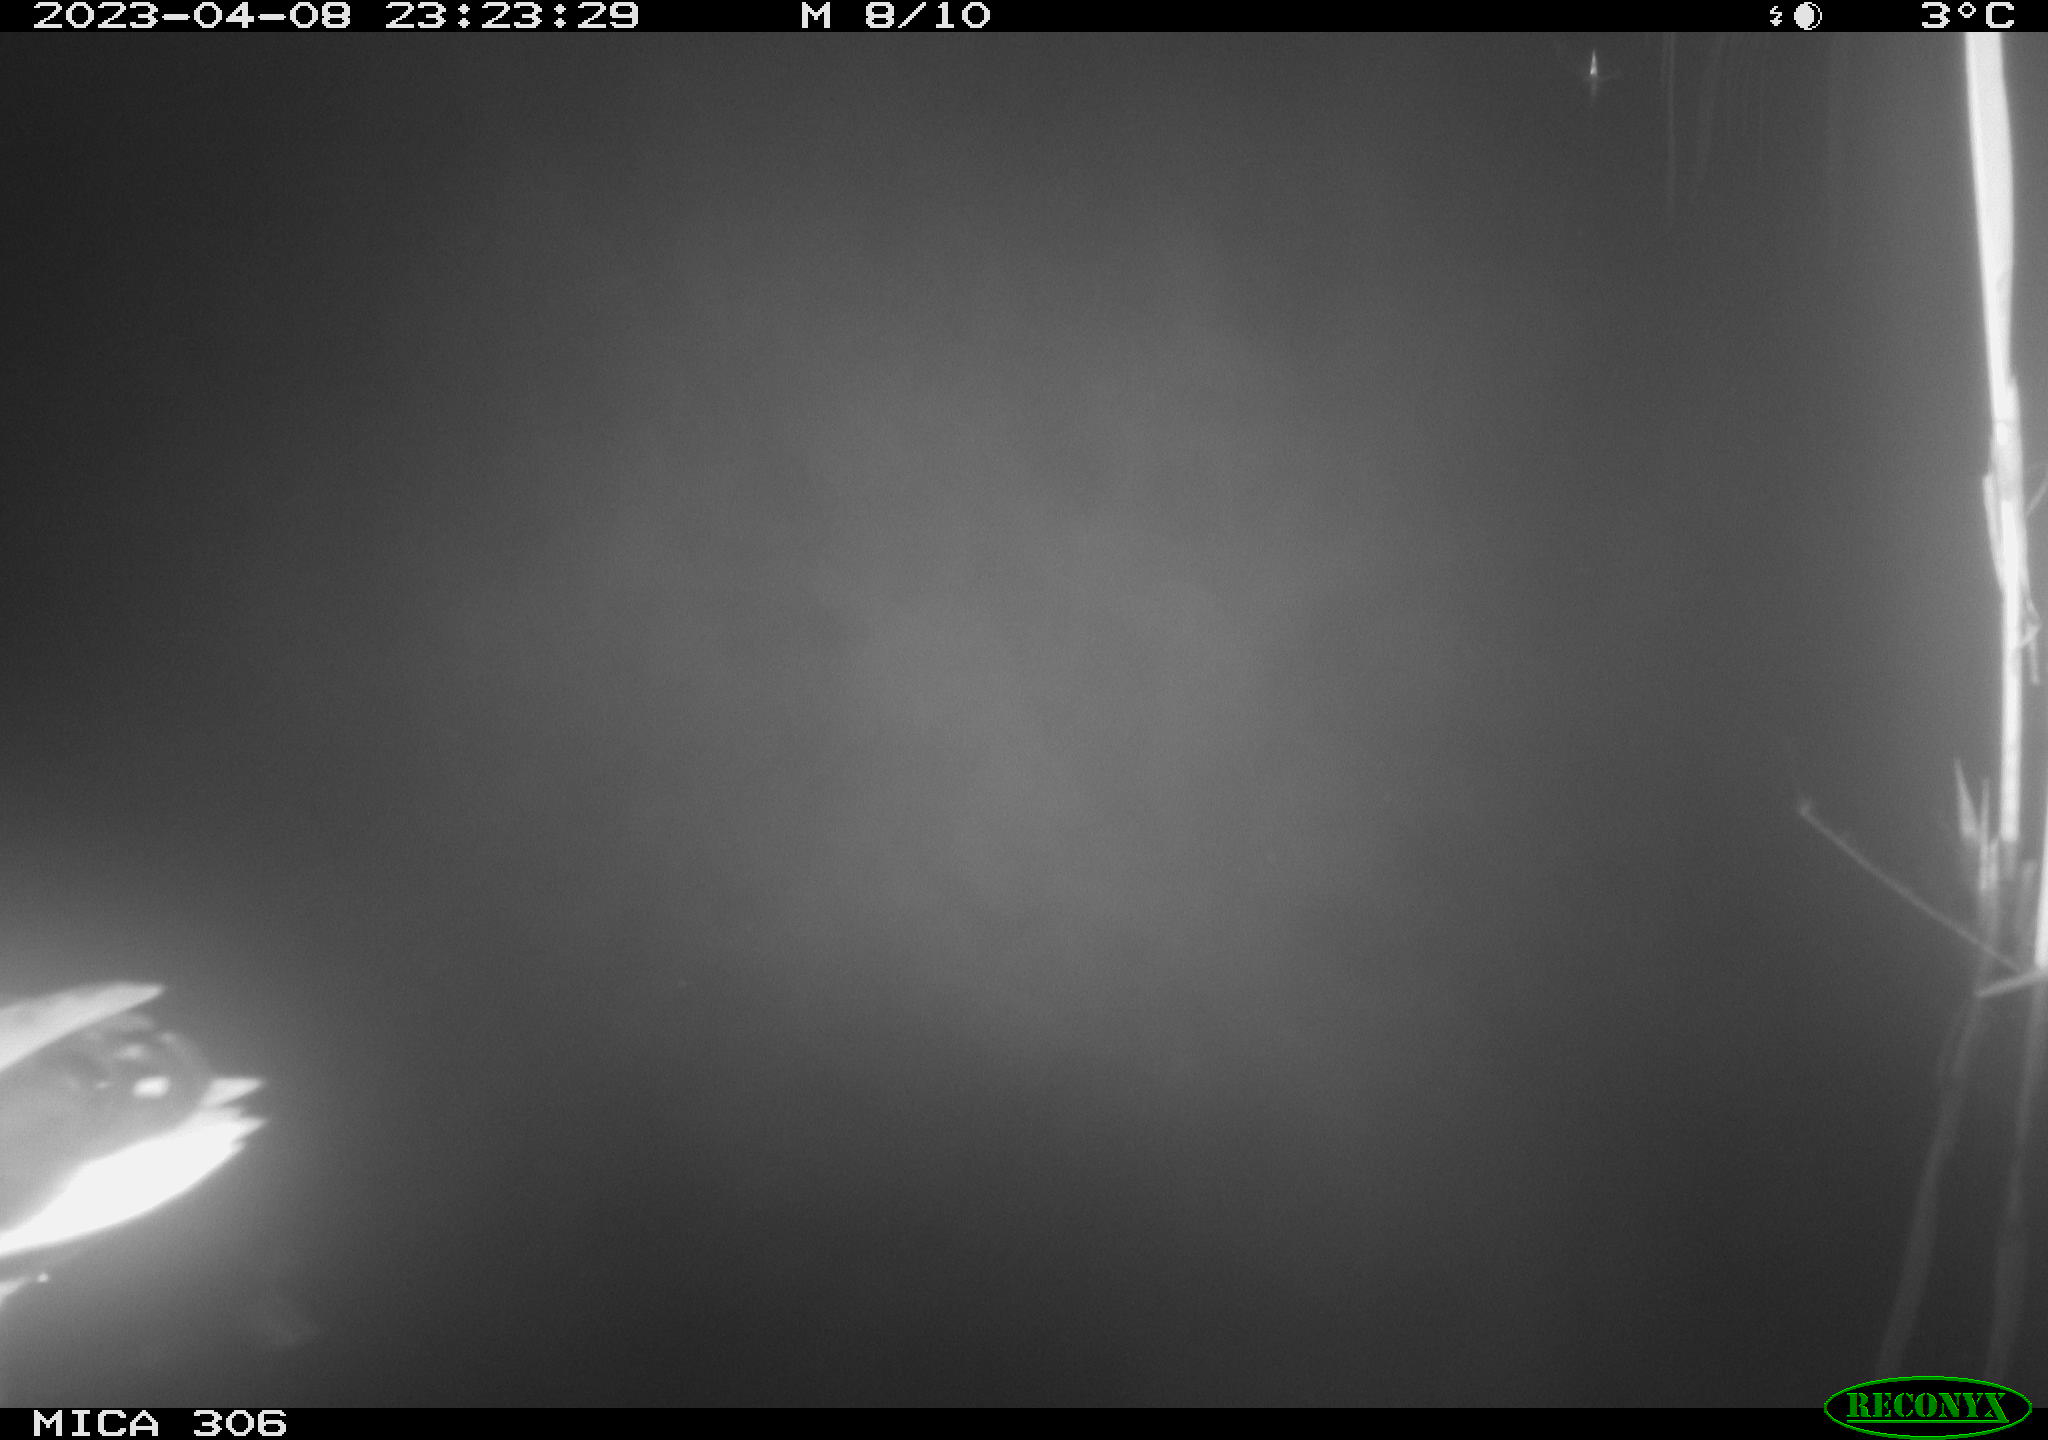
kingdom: Animalia
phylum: Chordata
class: Aves
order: Anseriformes
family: Anatidae
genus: Anas
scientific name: Anas
